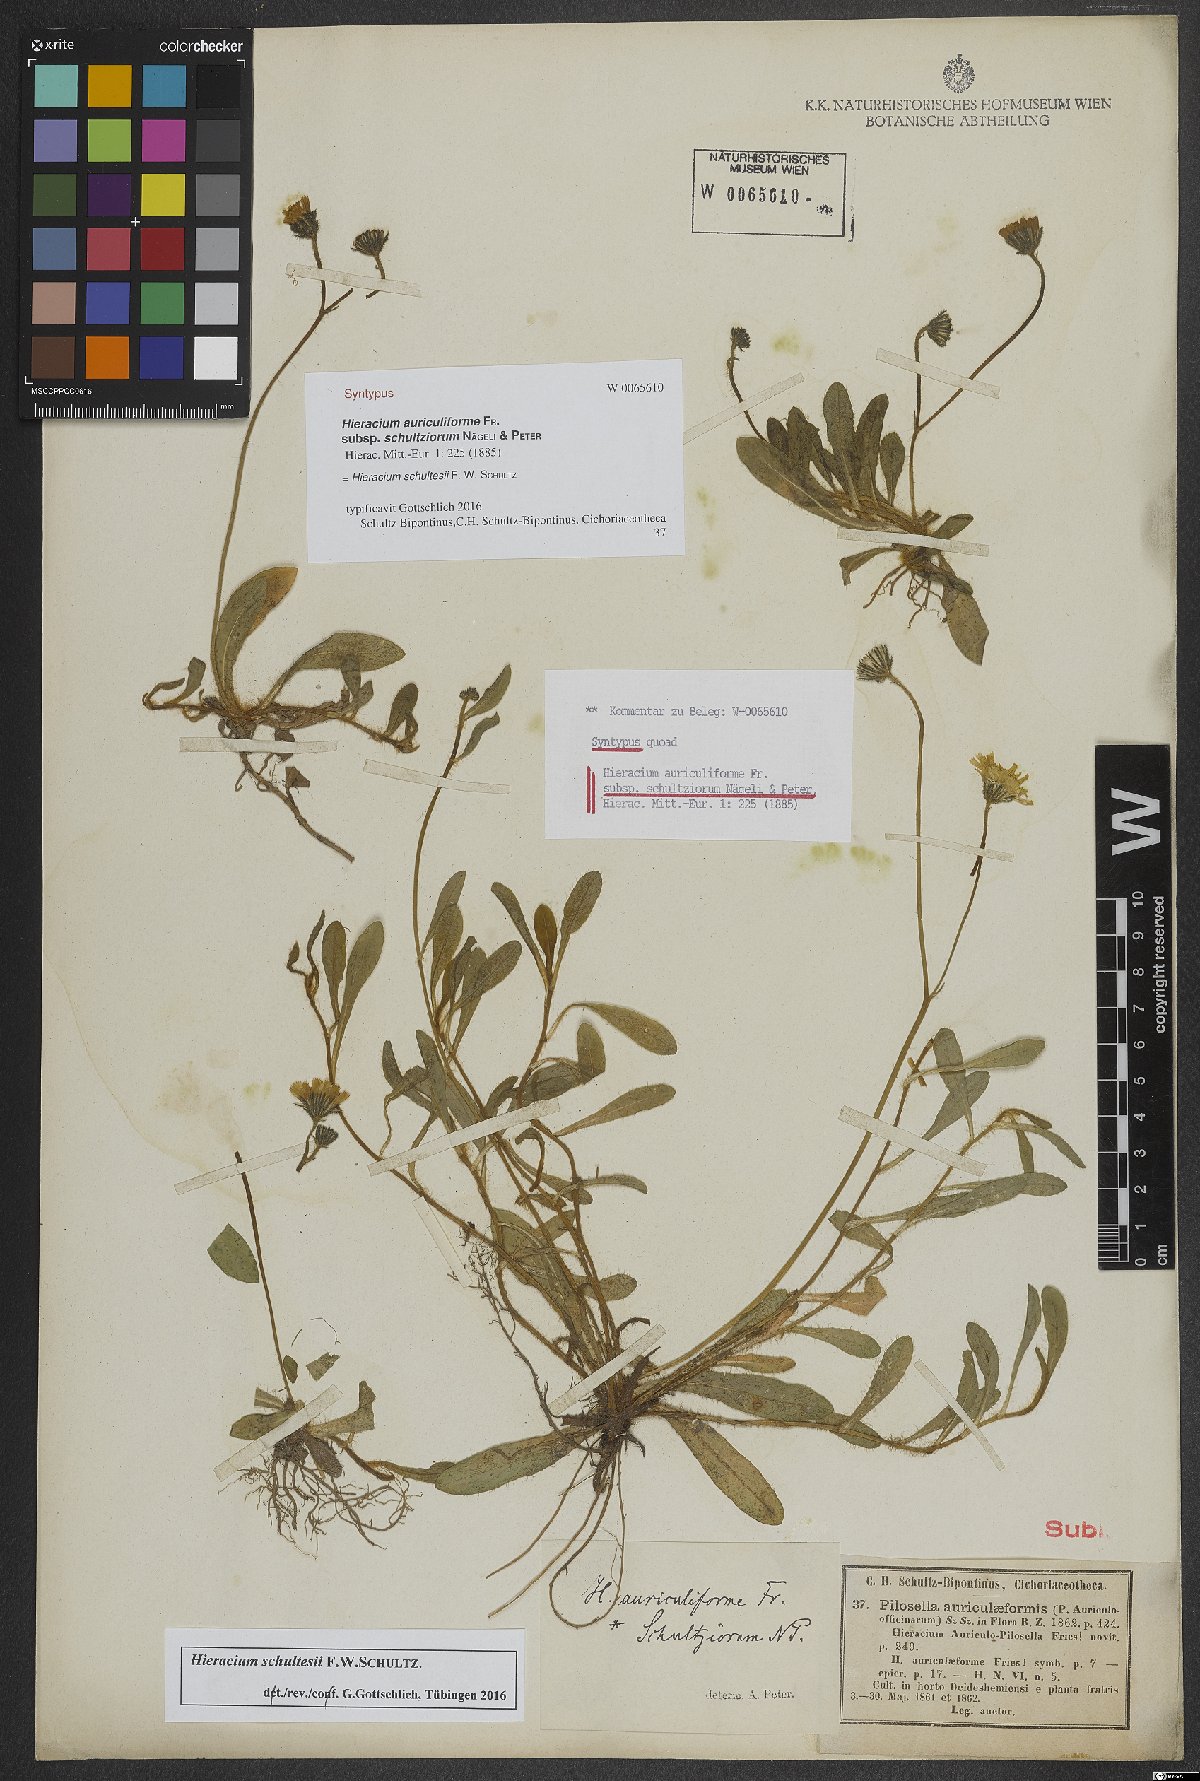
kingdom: Plantae
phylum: Tracheophyta
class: Magnoliopsida
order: Asterales
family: Asteraceae
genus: Pilosella
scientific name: Pilosella schultesii
